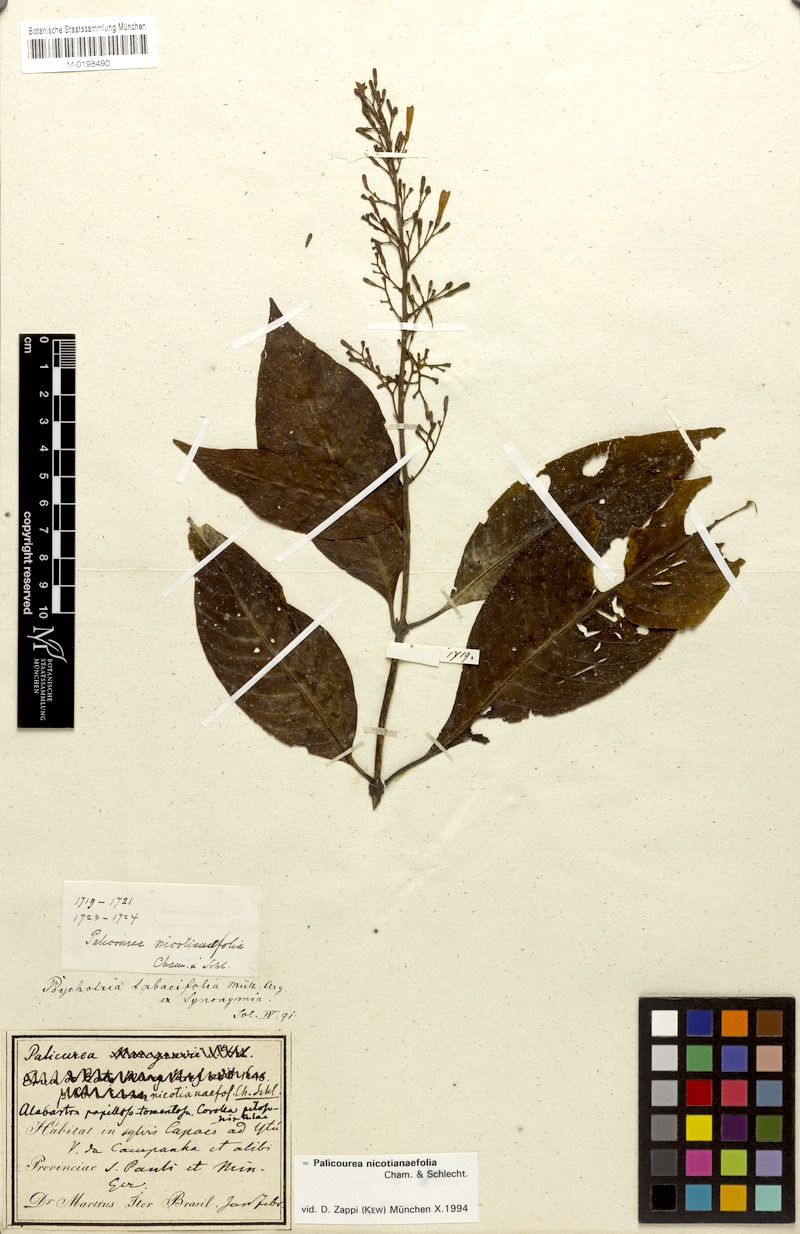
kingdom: Plantae
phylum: Tracheophyta
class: Magnoliopsida
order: Gentianales
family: Rubiaceae
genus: Palicourea
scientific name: Palicourea macrobotrys
